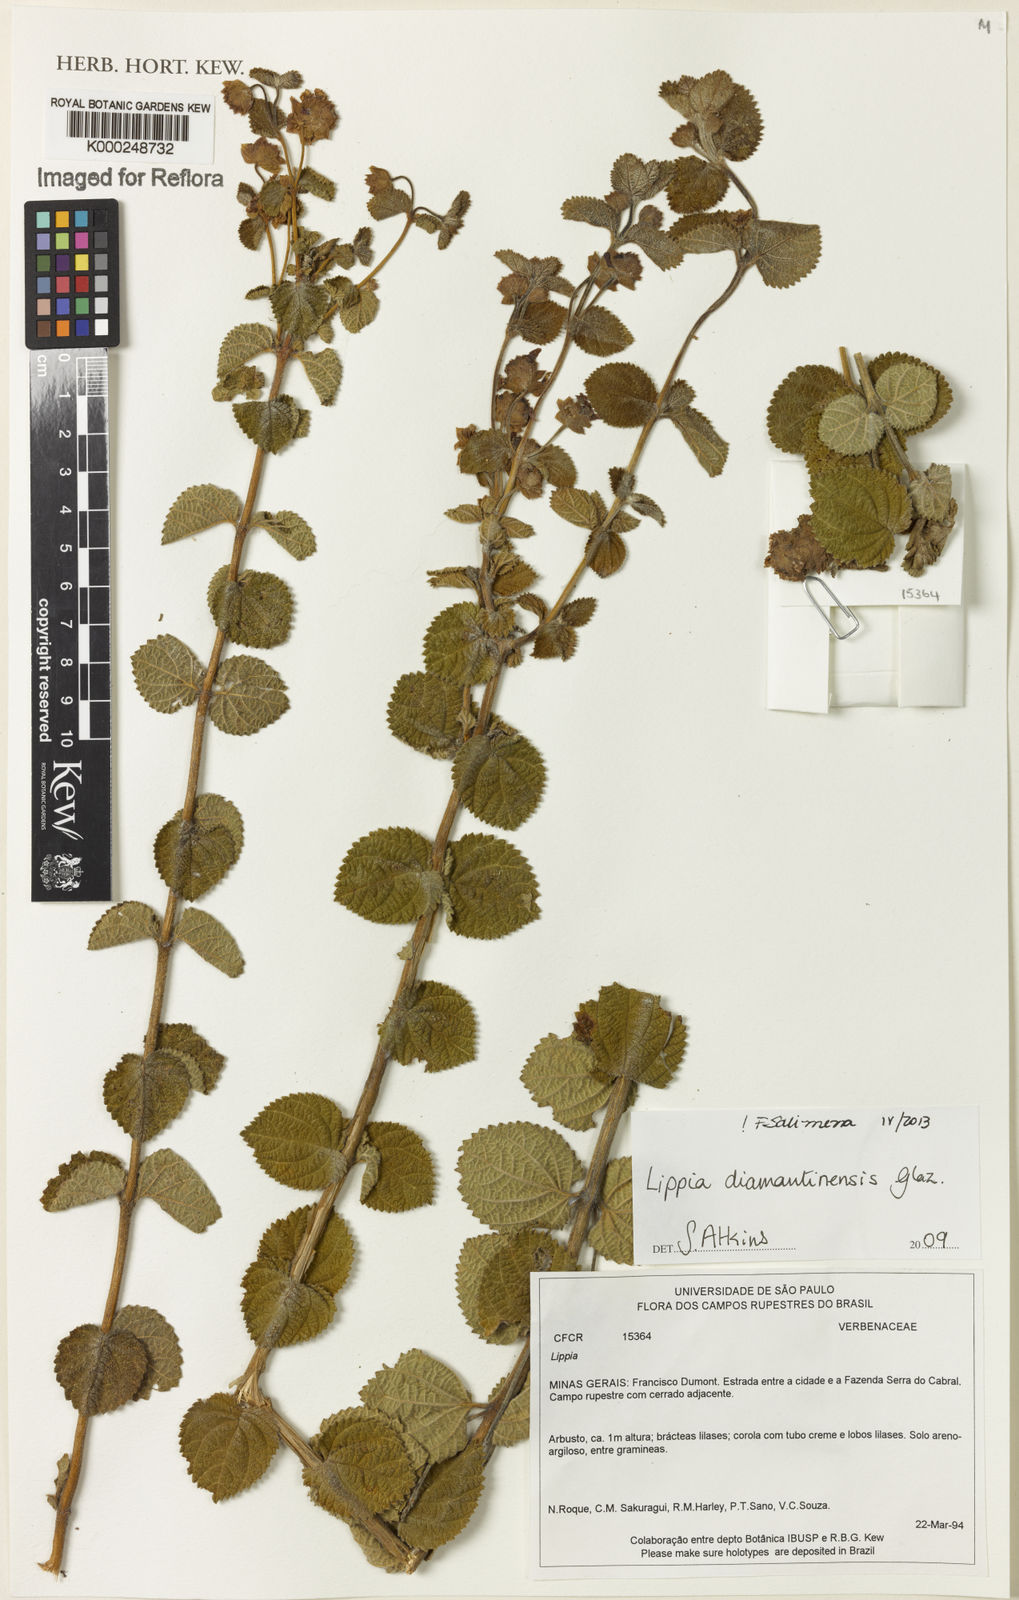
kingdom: Plantae
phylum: Tracheophyta
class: Magnoliopsida
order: Lamiales
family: Verbenaceae
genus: Lippia
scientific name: Lippia diamantinensis
